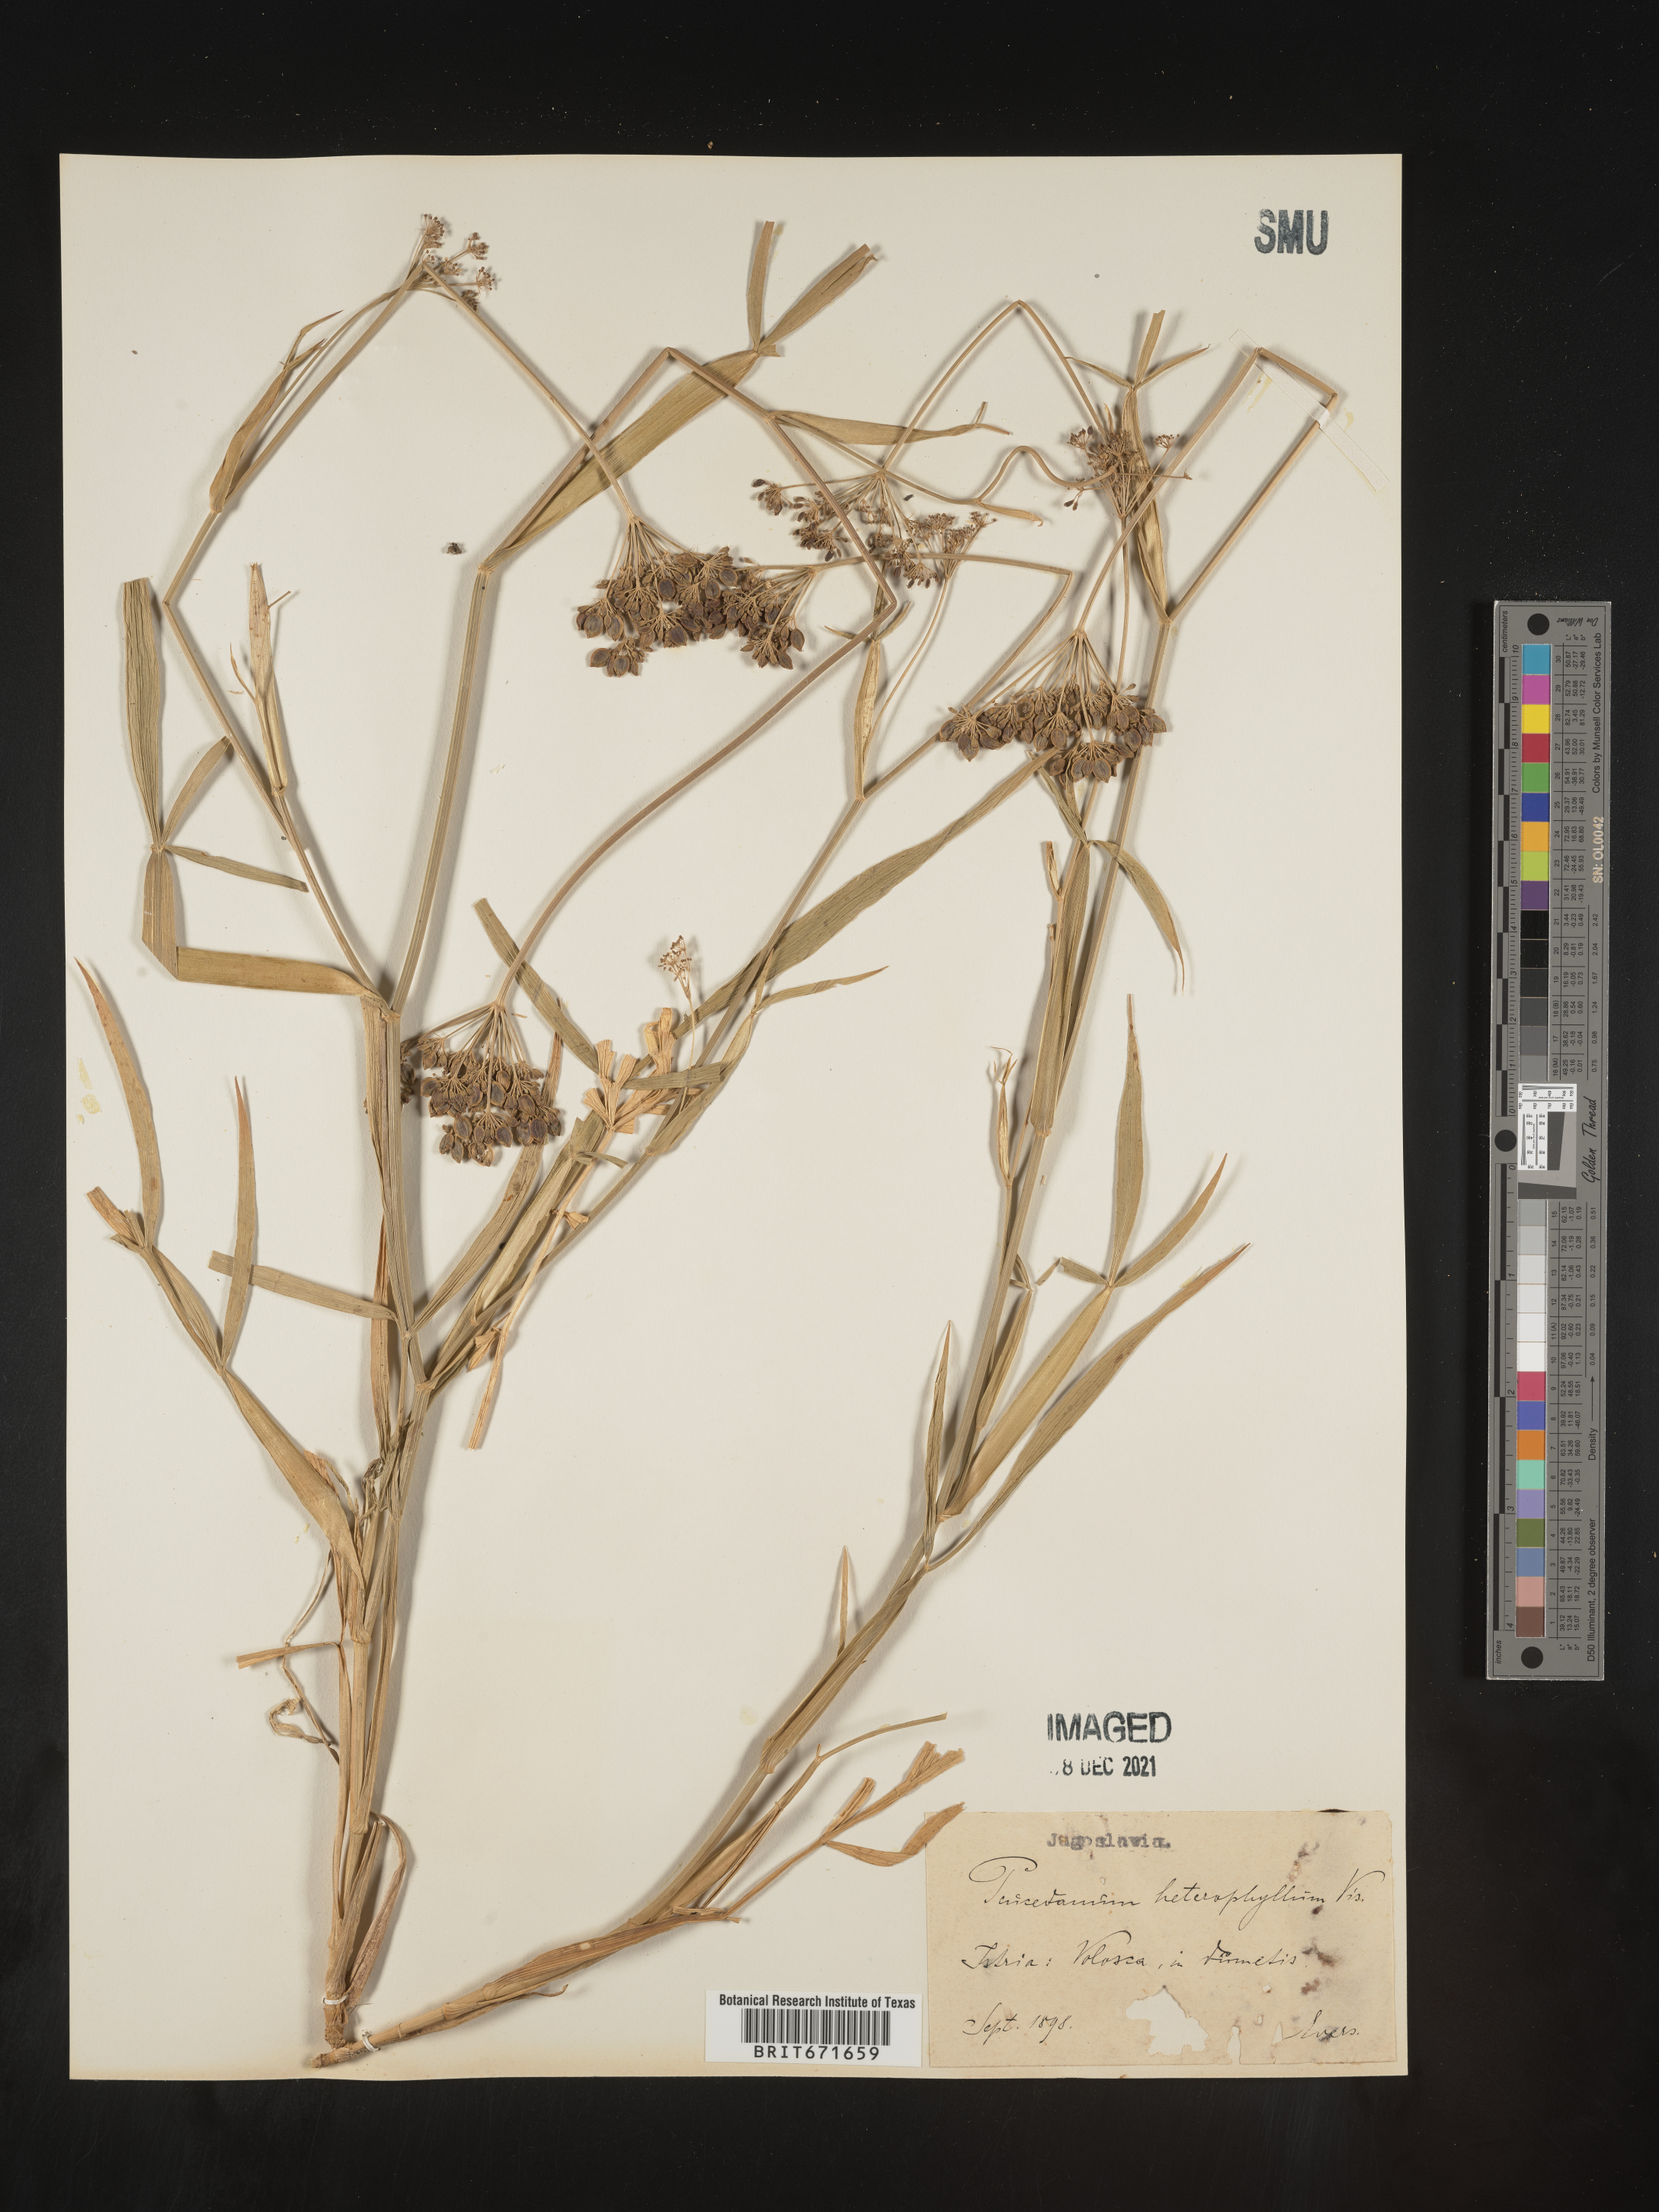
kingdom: Plantae
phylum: Tracheophyta
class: Magnoliopsida
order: Apiales
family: Apiaceae
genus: Peucedanum
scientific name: Peucedanum
